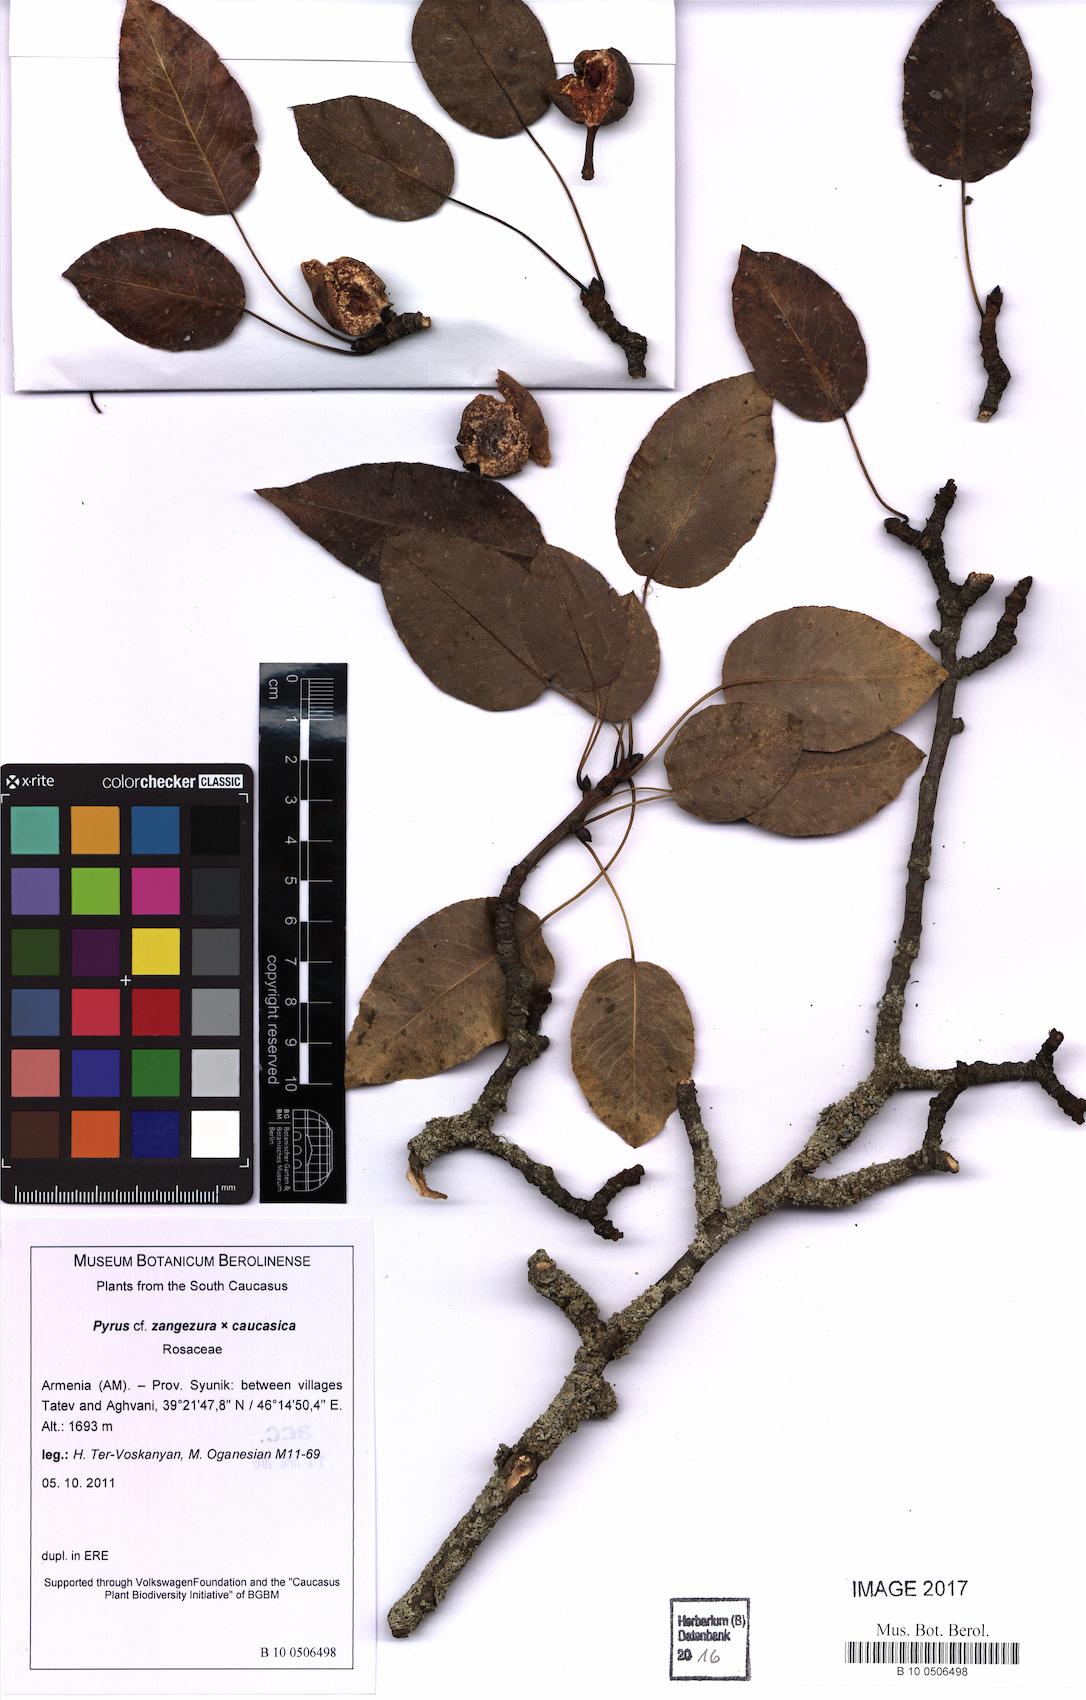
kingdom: Plantae
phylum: Tracheophyta
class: Magnoliopsida
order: Rosales
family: Rosaceae
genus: Pyrus
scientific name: Pyrus zangezura
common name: Zangezurian pear
